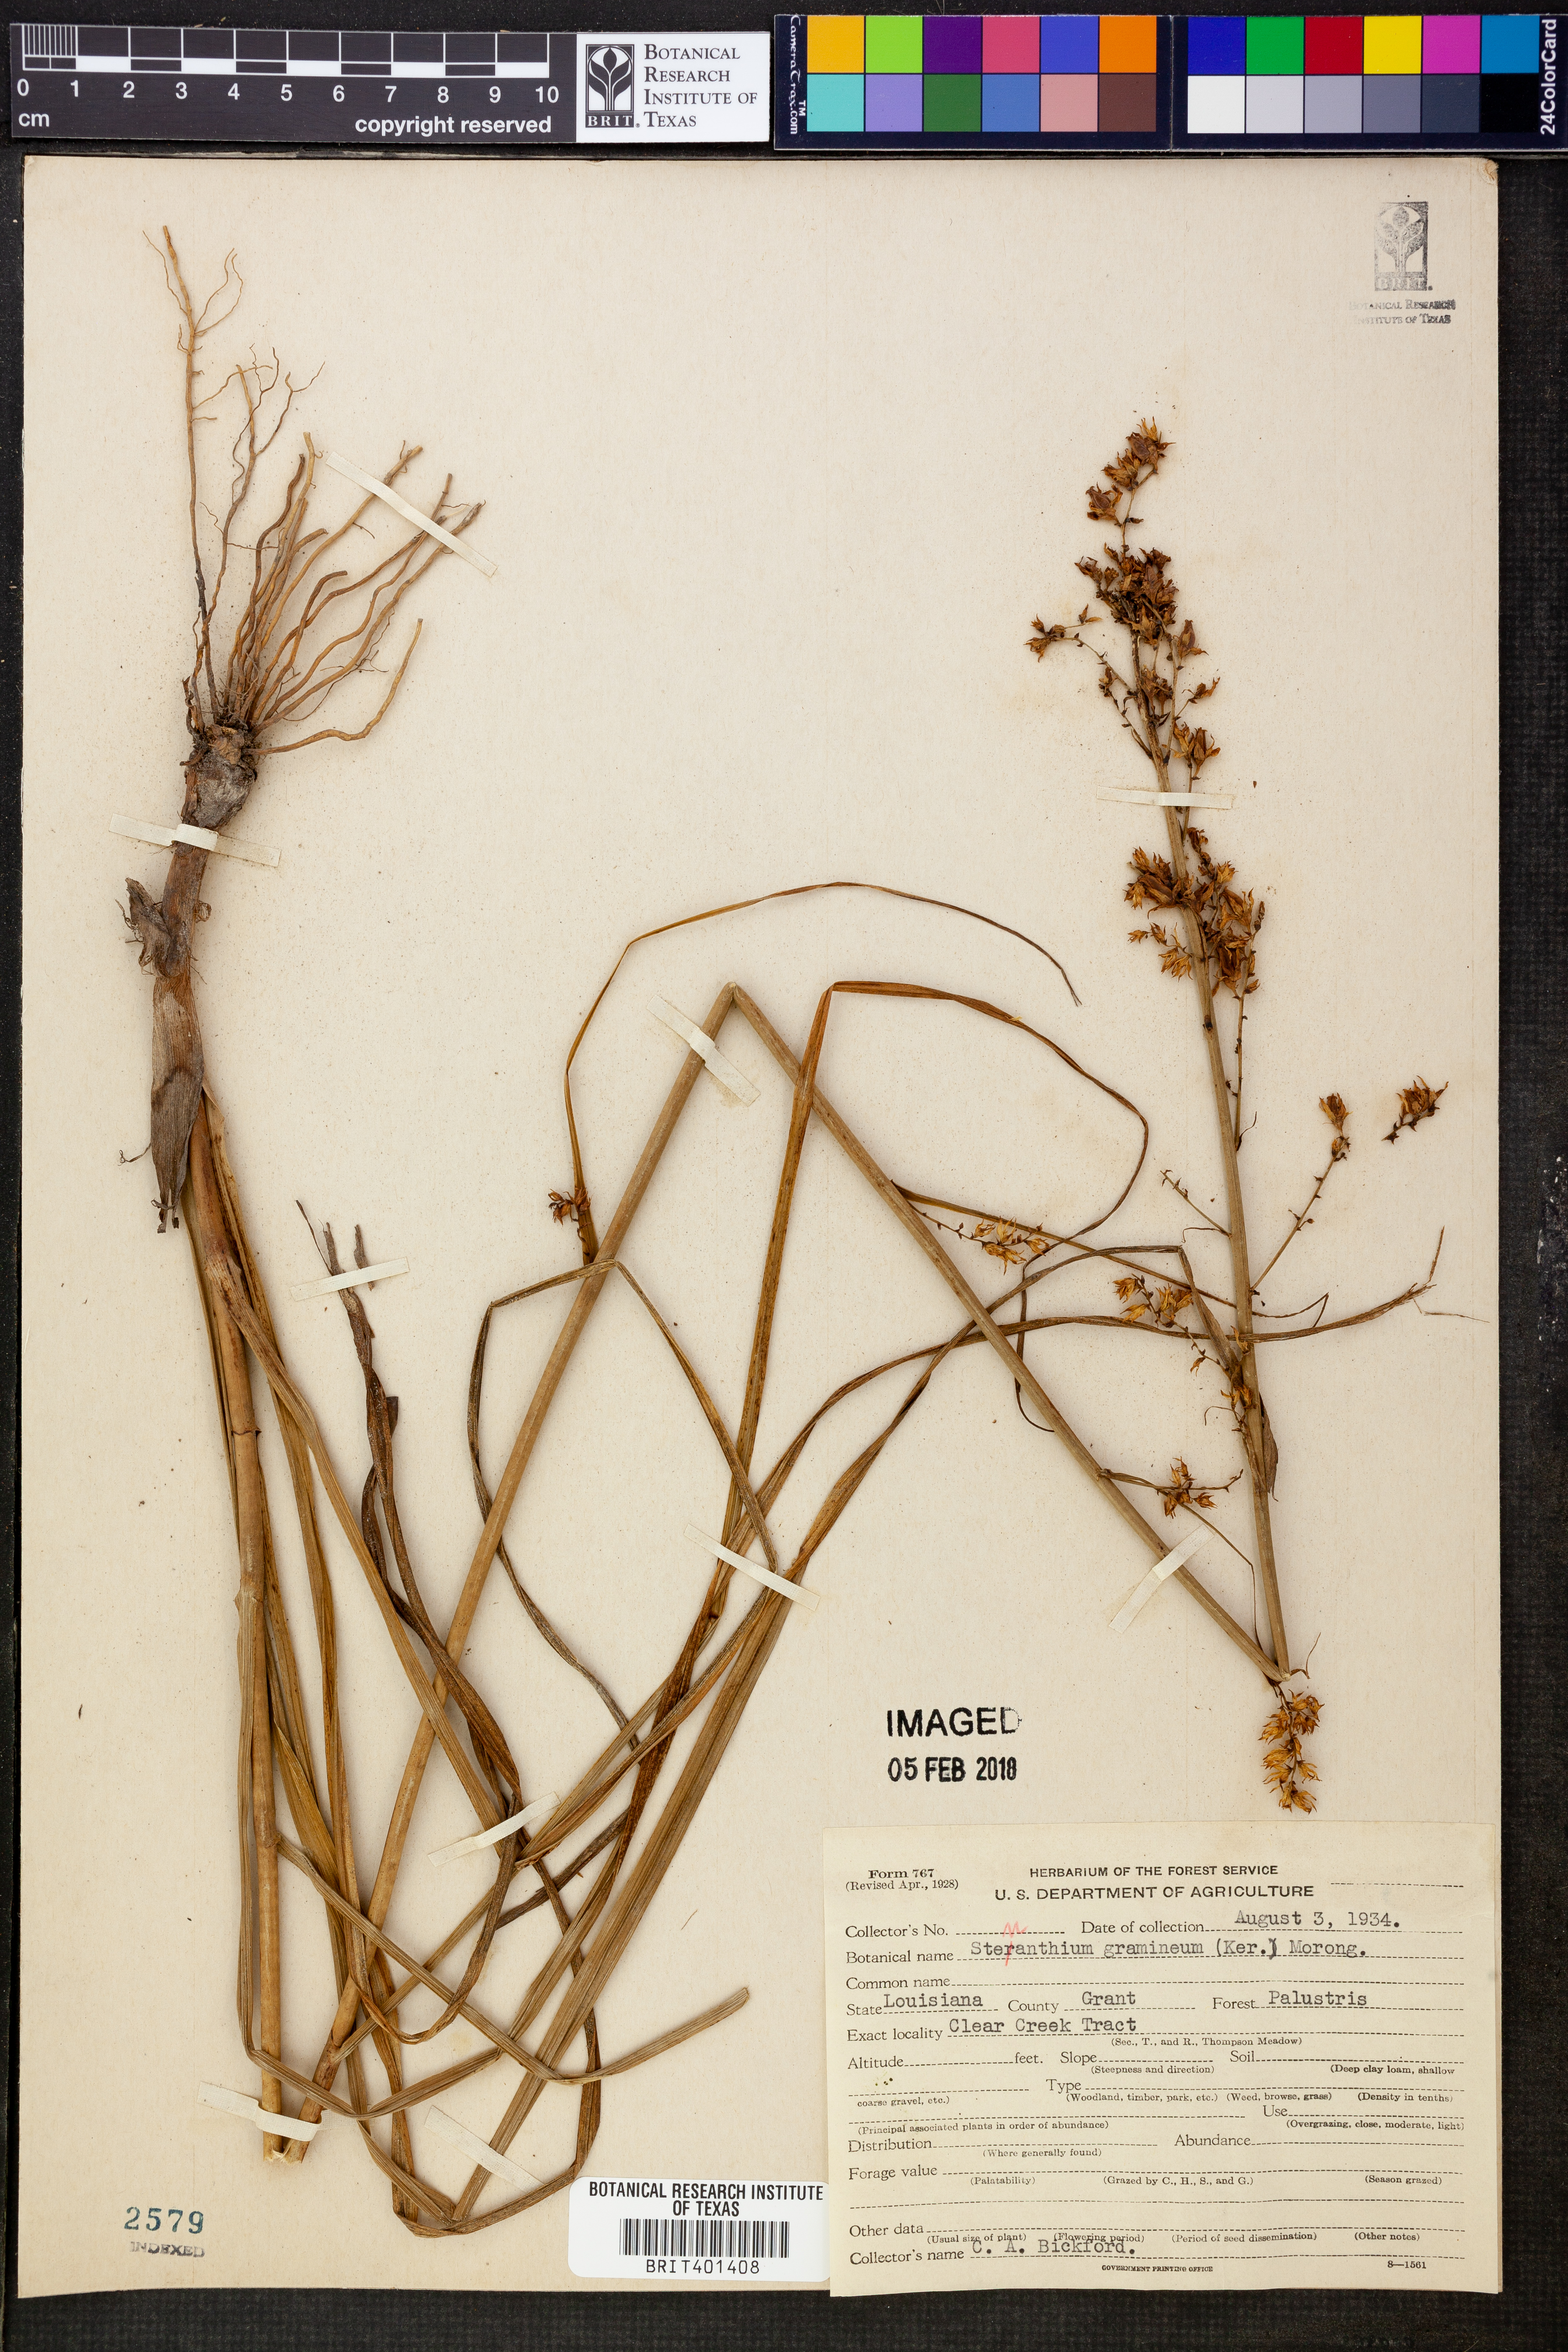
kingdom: Plantae
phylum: Tracheophyta
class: Liliopsida
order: Liliales
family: Melanthiaceae
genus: Stenanthium
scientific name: Stenanthium gramineum
